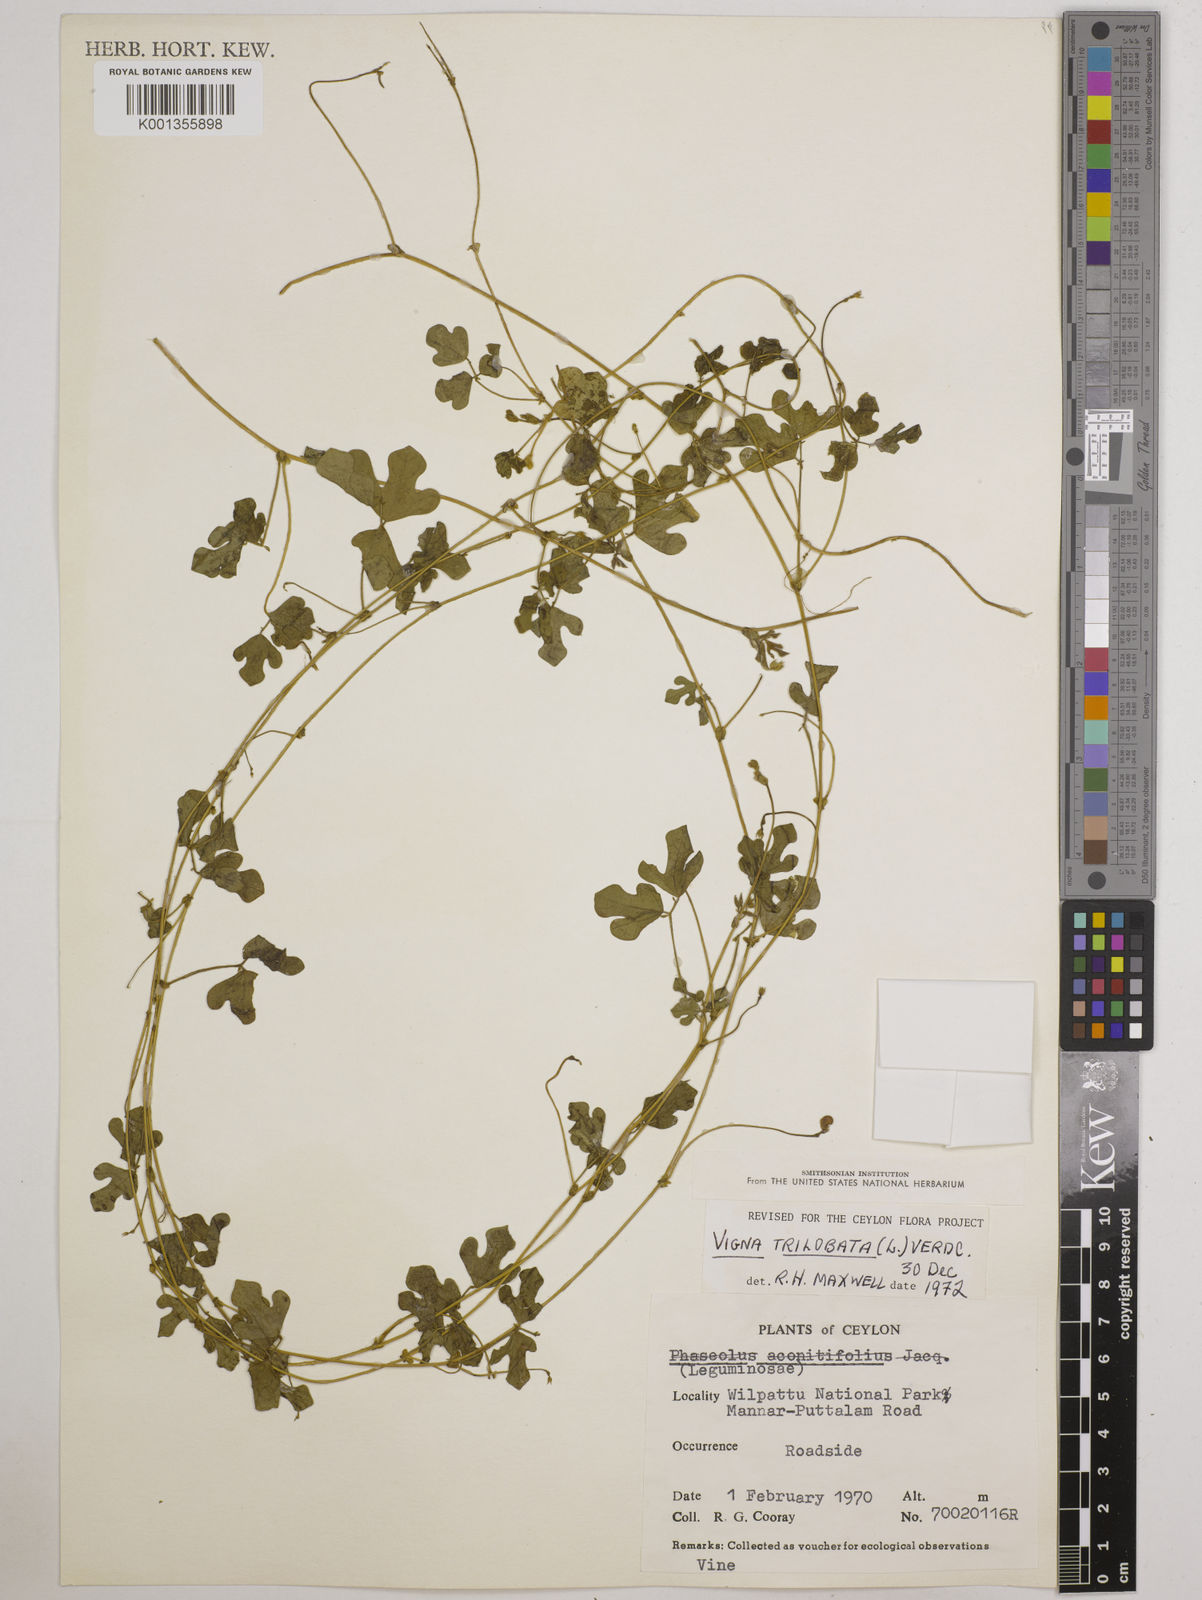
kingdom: Plantae
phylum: Tracheophyta
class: Magnoliopsida
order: Fabales
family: Fabaceae
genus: Vigna
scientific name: Vigna trilobata
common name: Jungli-bean
